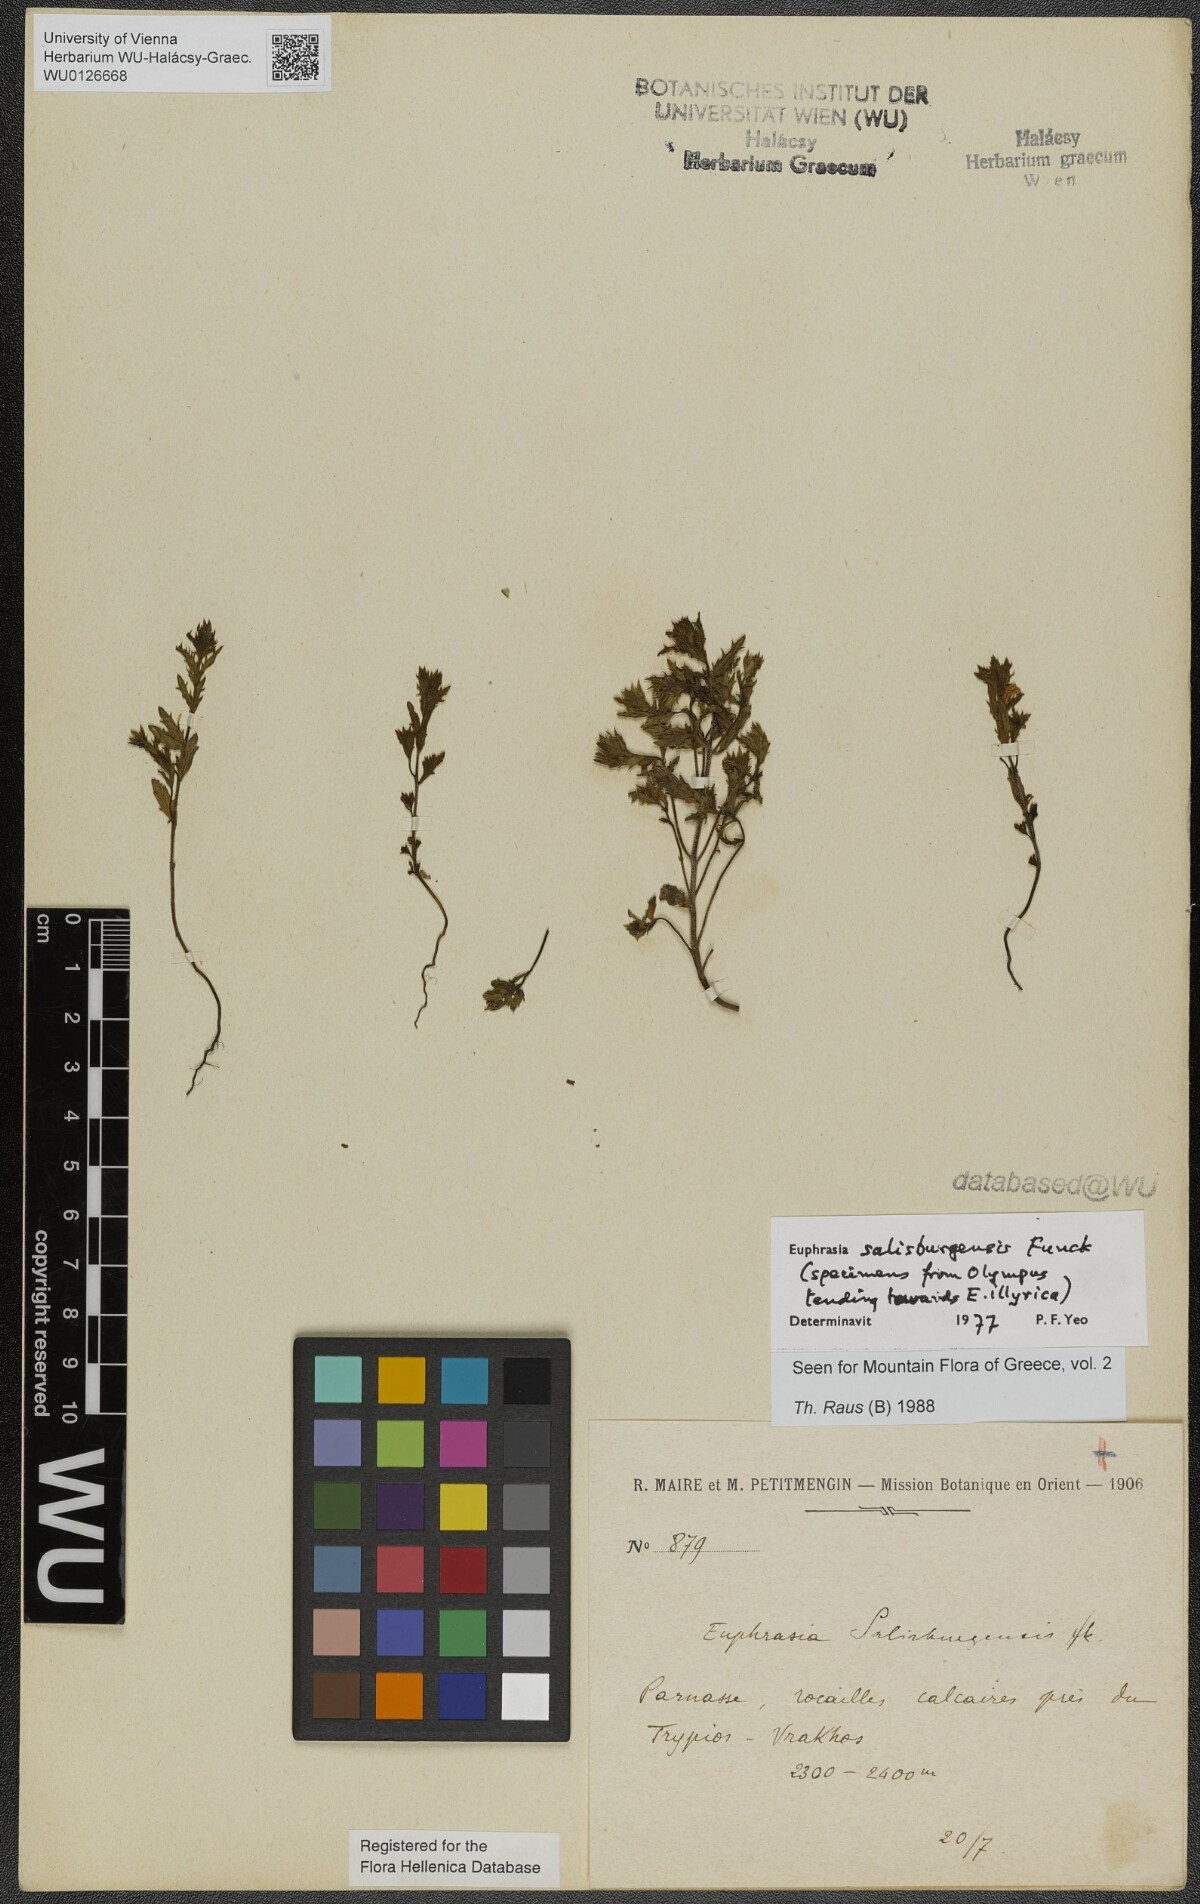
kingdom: Plantae
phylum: Tracheophyta
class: Magnoliopsida
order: Lamiales
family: Orobanchaceae
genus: Euphrasia
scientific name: Euphrasia salisburgensis
